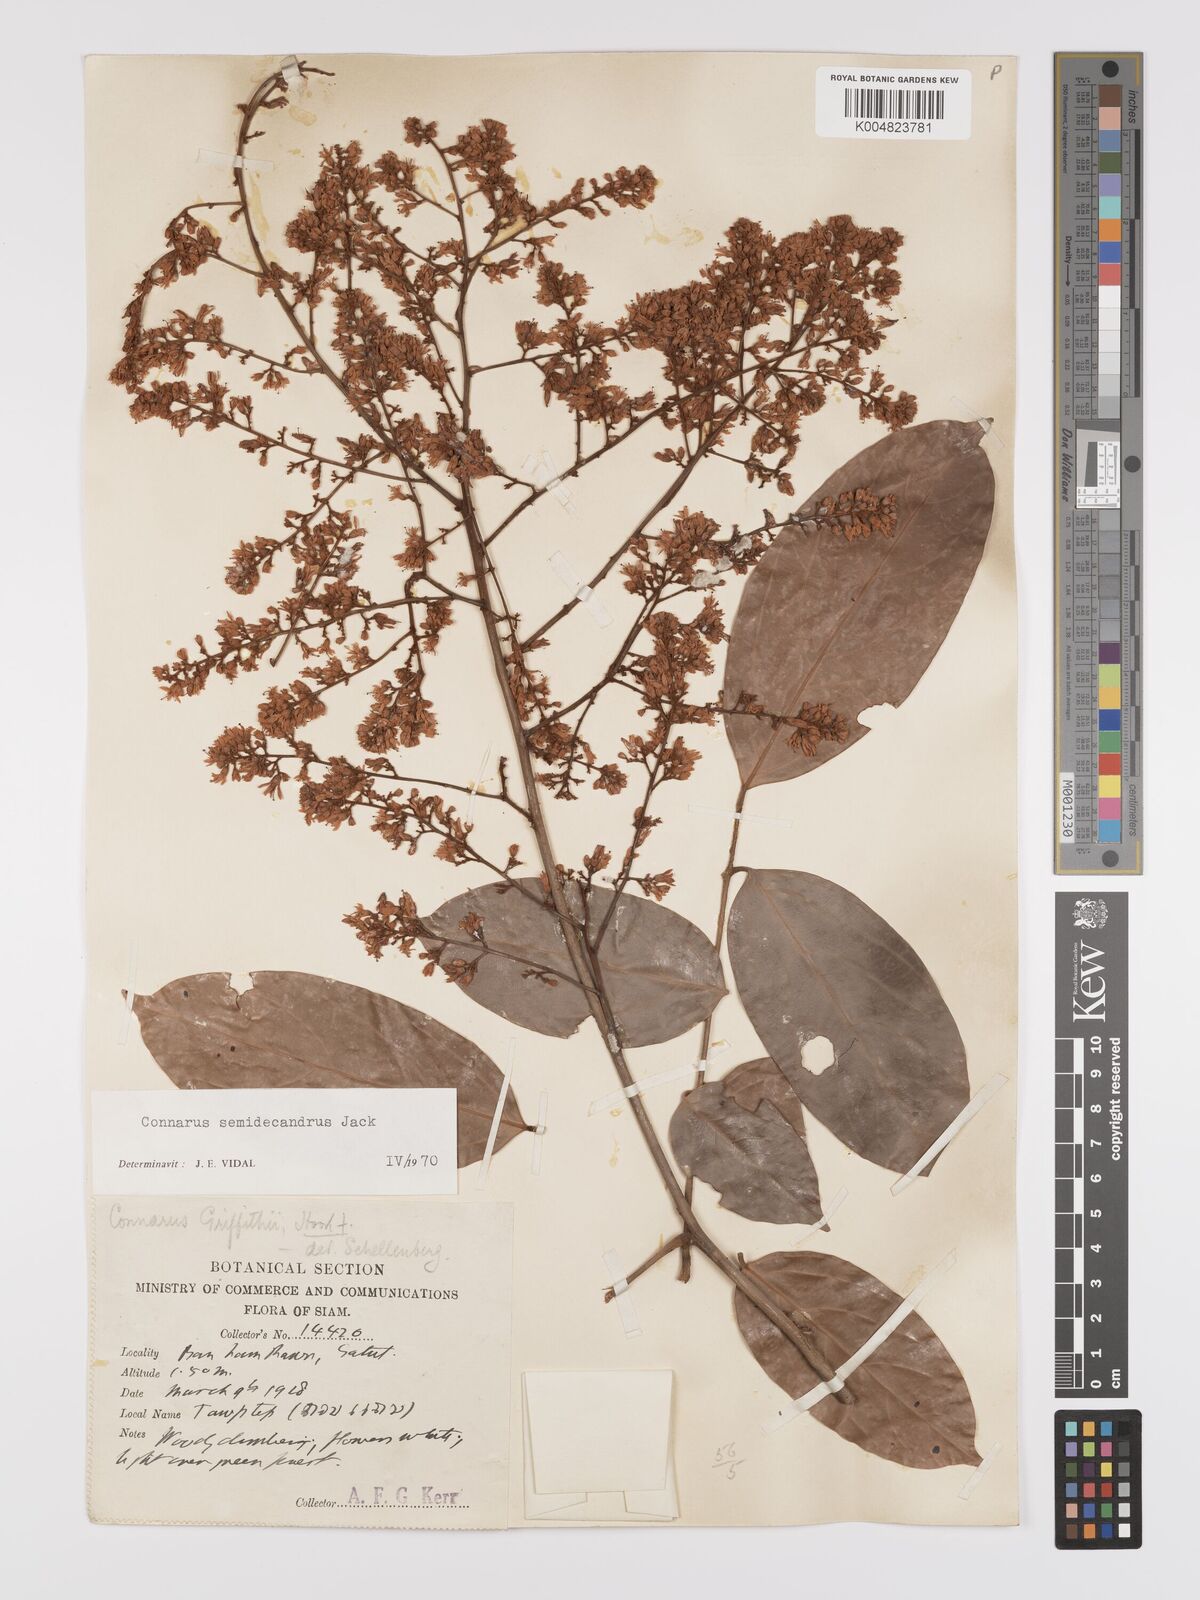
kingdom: Plantae
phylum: Tracheophyta
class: Magnoliopsida
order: Oxalidales
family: Connaraceae
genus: Connarus
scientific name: Connarus semidecandrus
